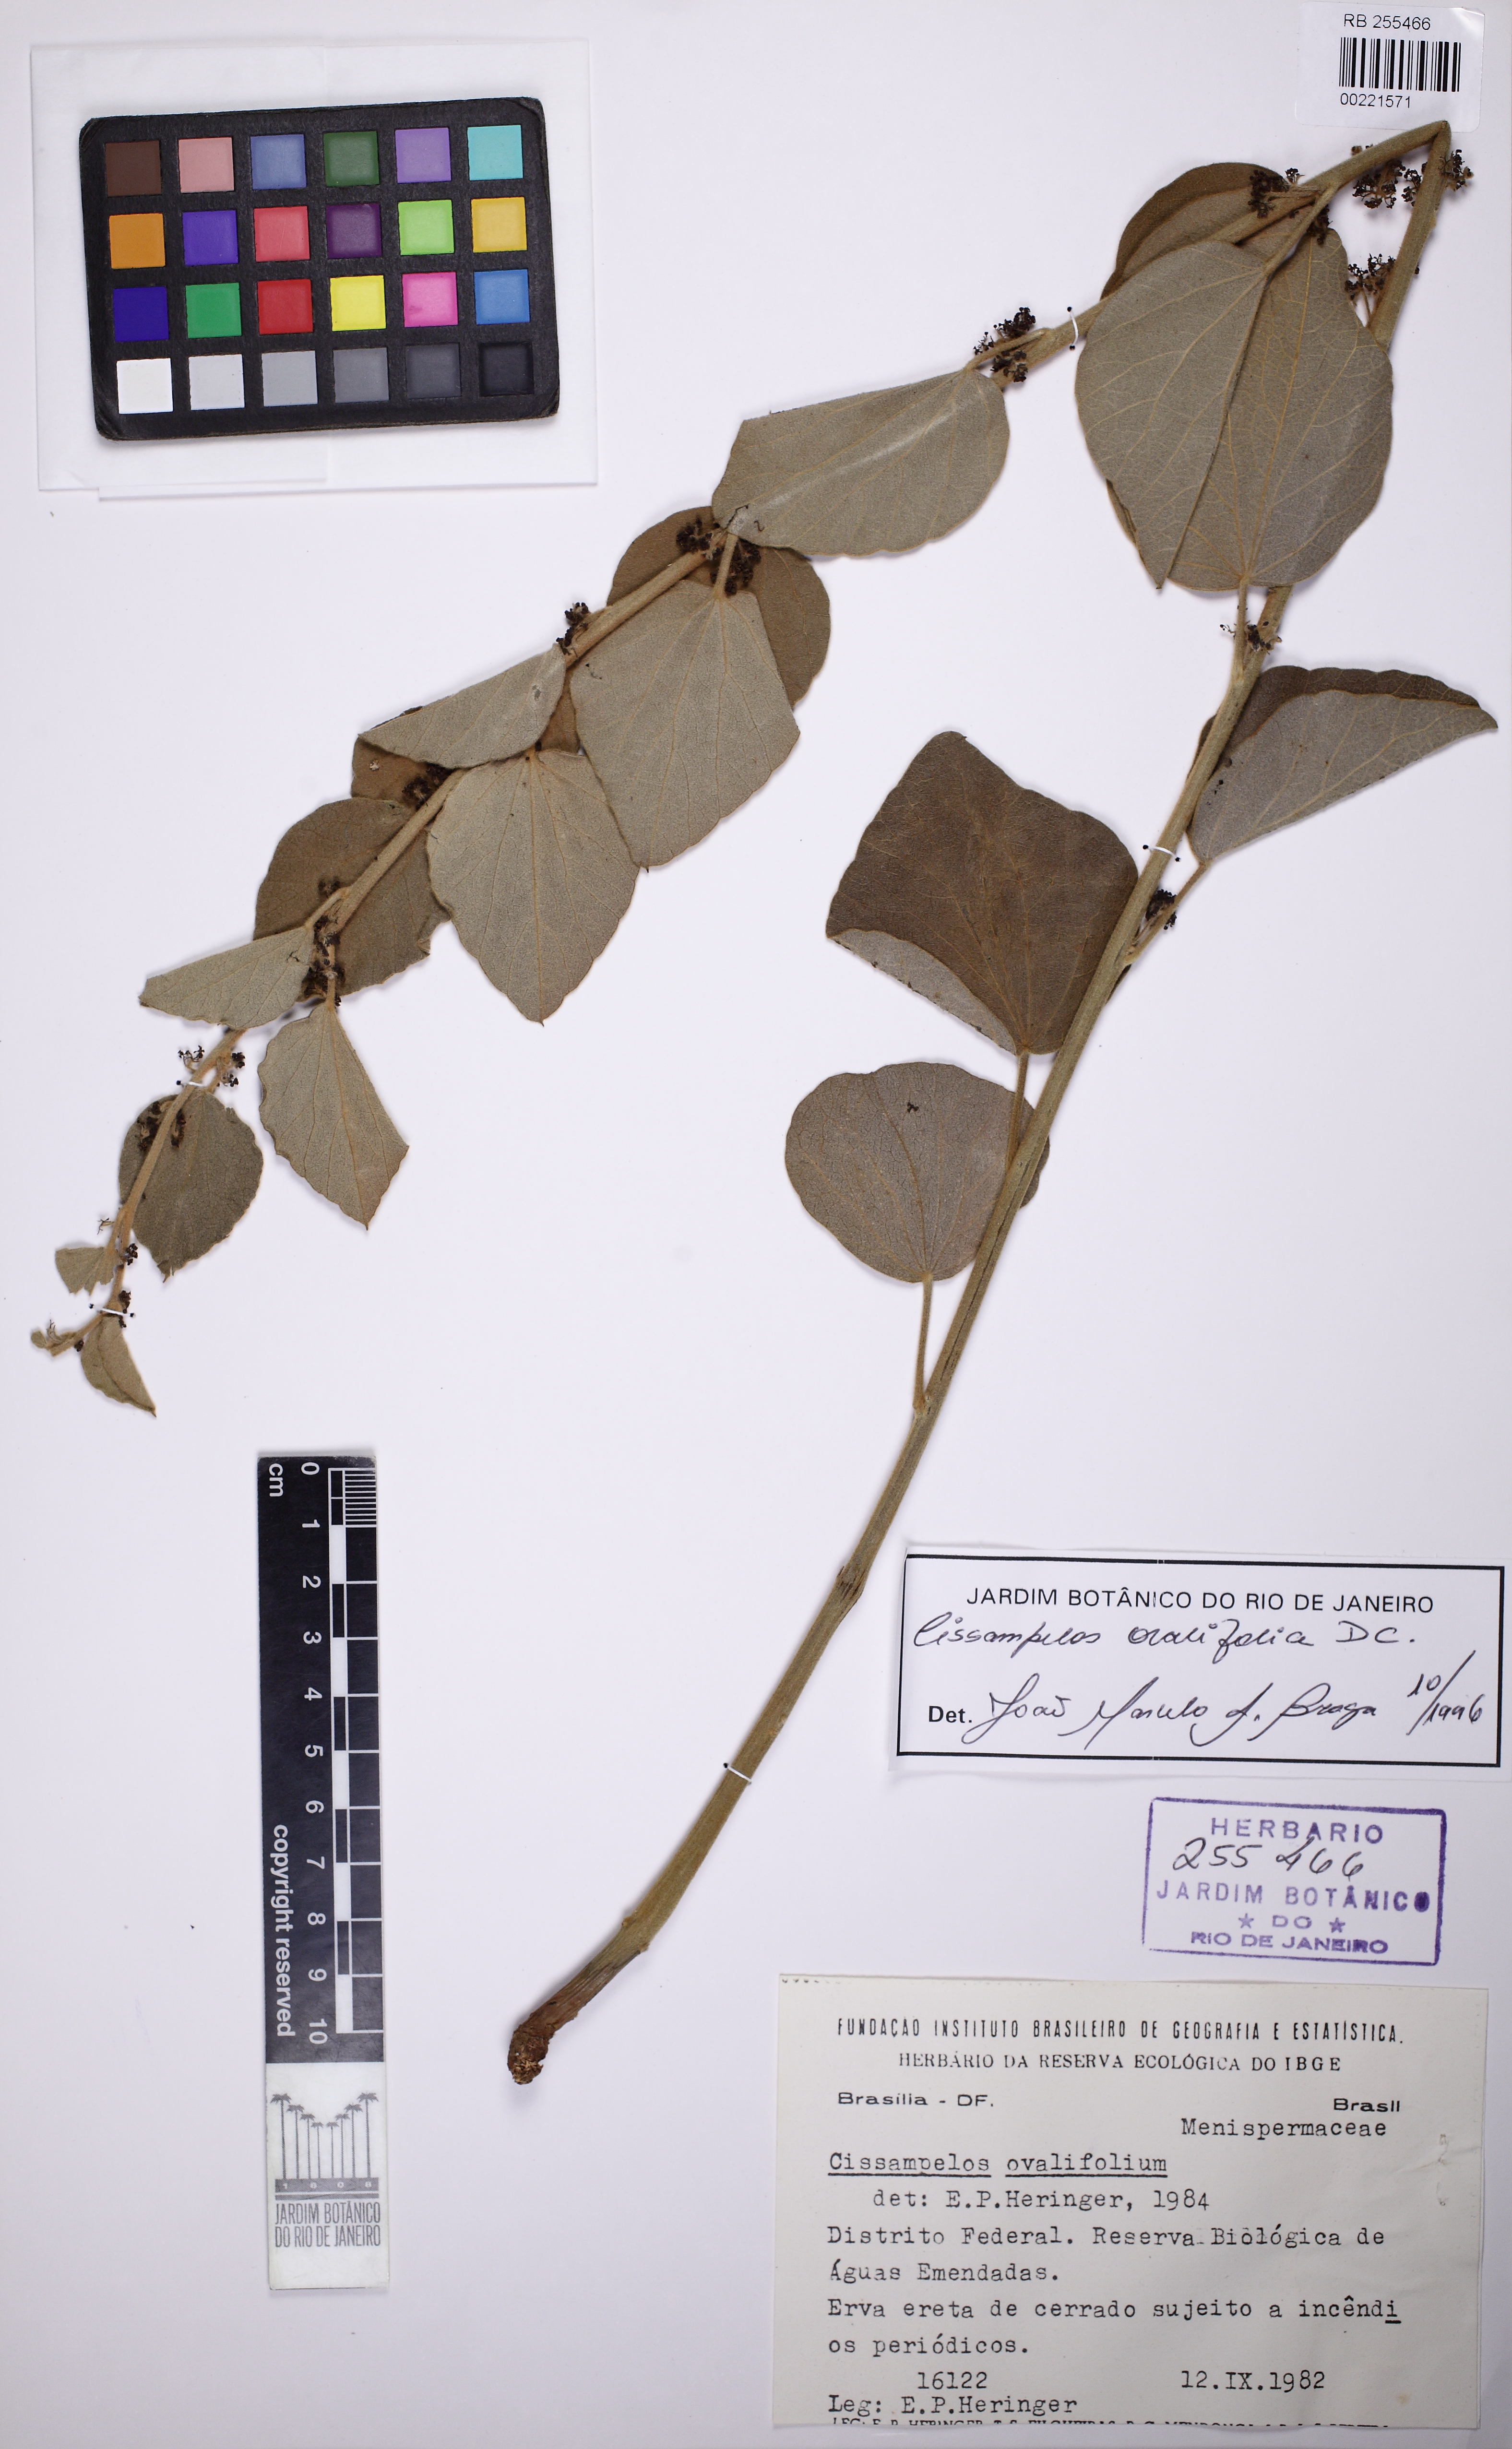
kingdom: Plantae
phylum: Tracheophyta
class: Magnoliopsida
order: Ranunculales
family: Menispermaceae
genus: Cissampelos
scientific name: Cissampelos ovalifolia
